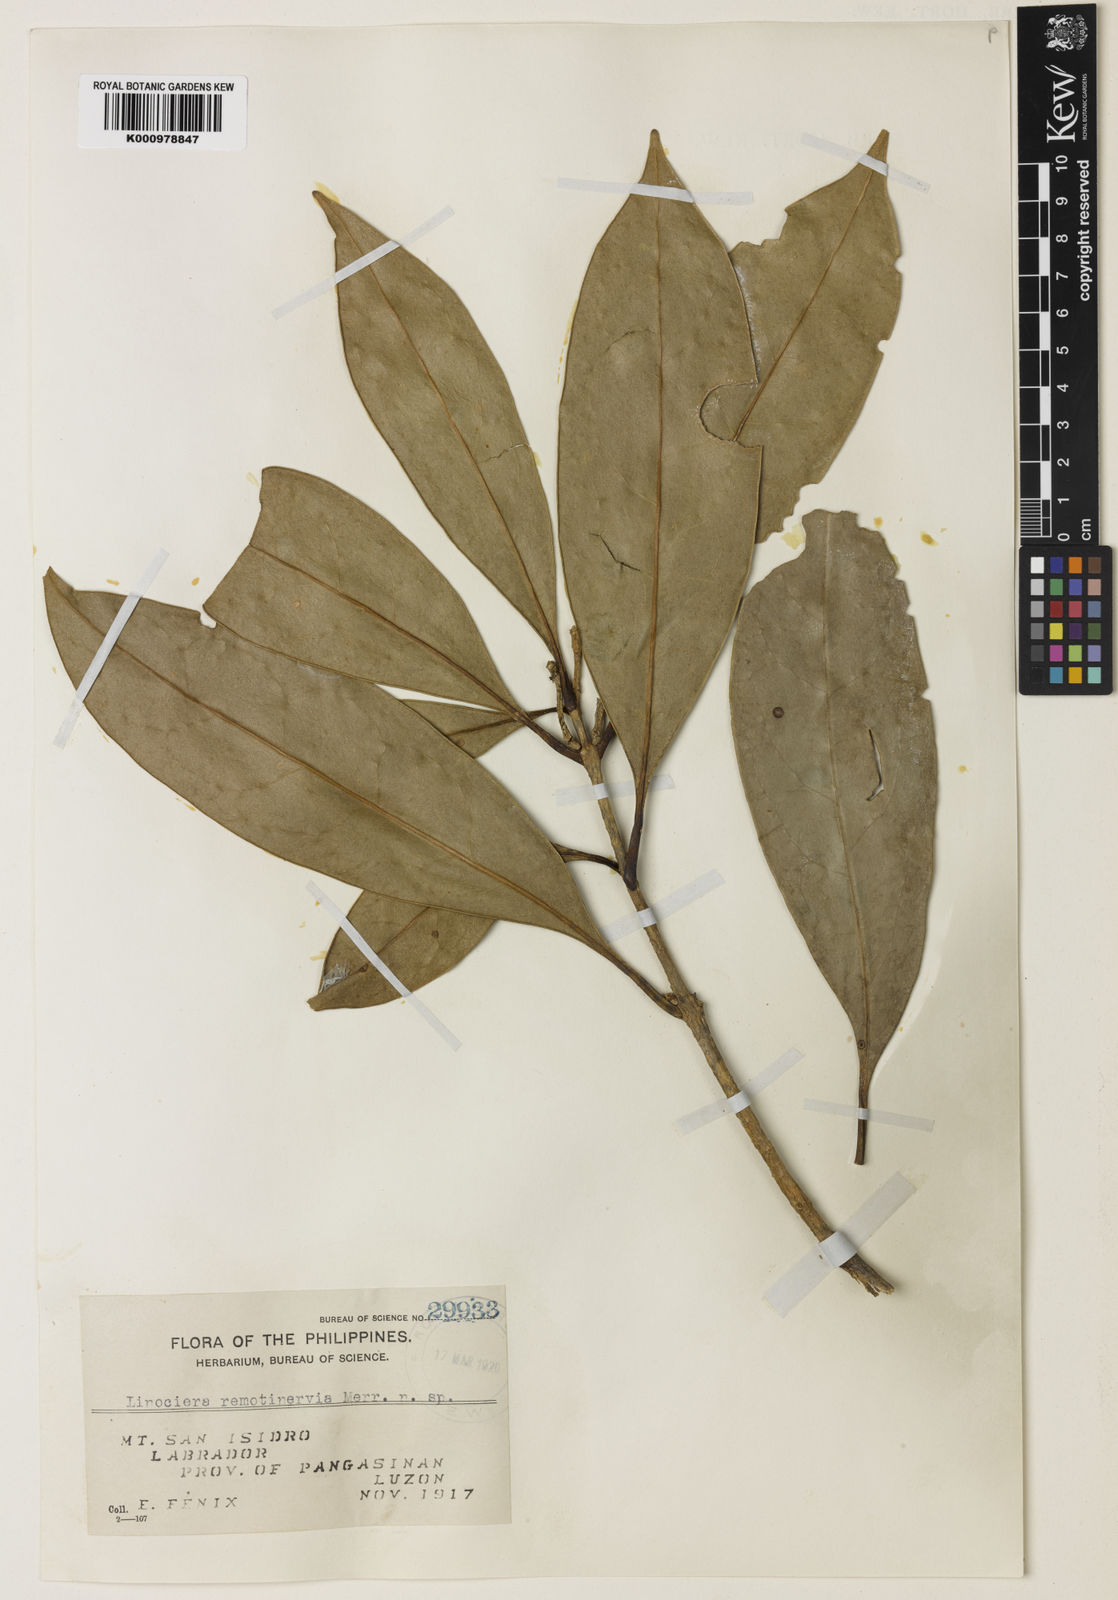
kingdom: Plantae
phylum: Tracheophyta
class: Magnoliopsida
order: Lamiales
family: Oleaceae
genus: Chionanthus
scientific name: Chionanthus remotinervius
